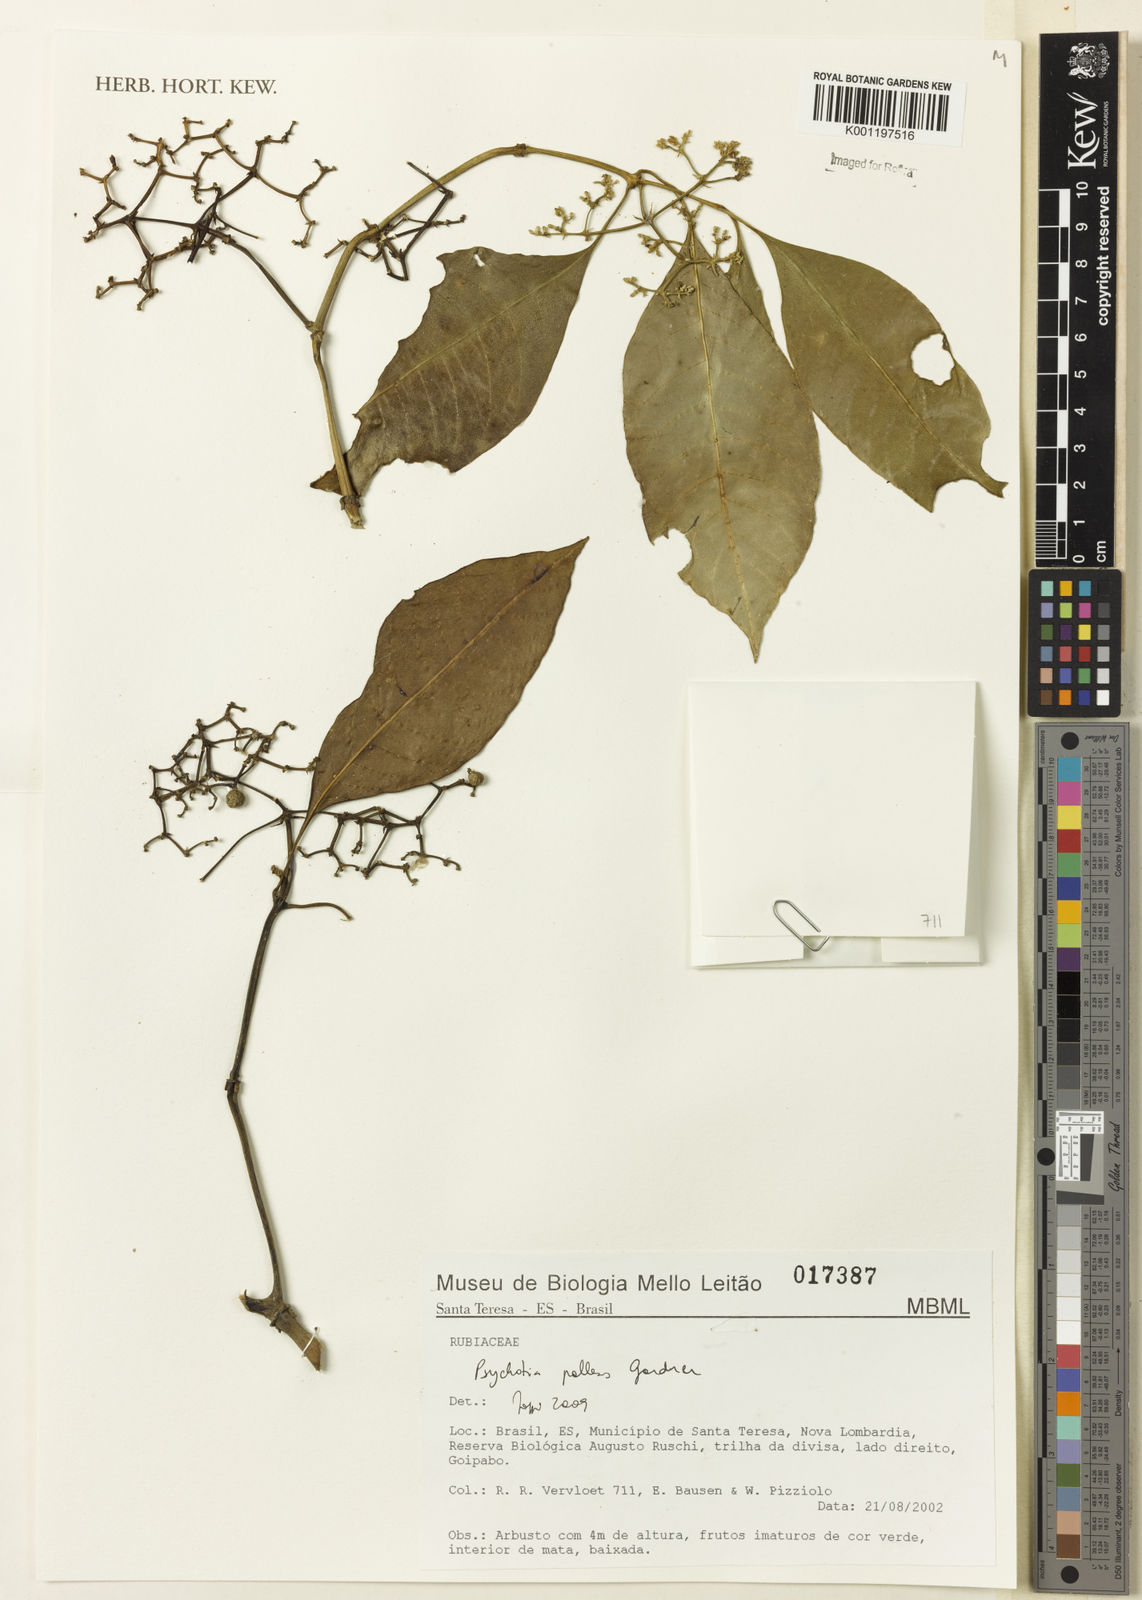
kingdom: Plantae
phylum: Tracheophyta
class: Magnoliopsida
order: Gentianales
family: Rubiaceae
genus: Psychotria
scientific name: Psychotria pallens
